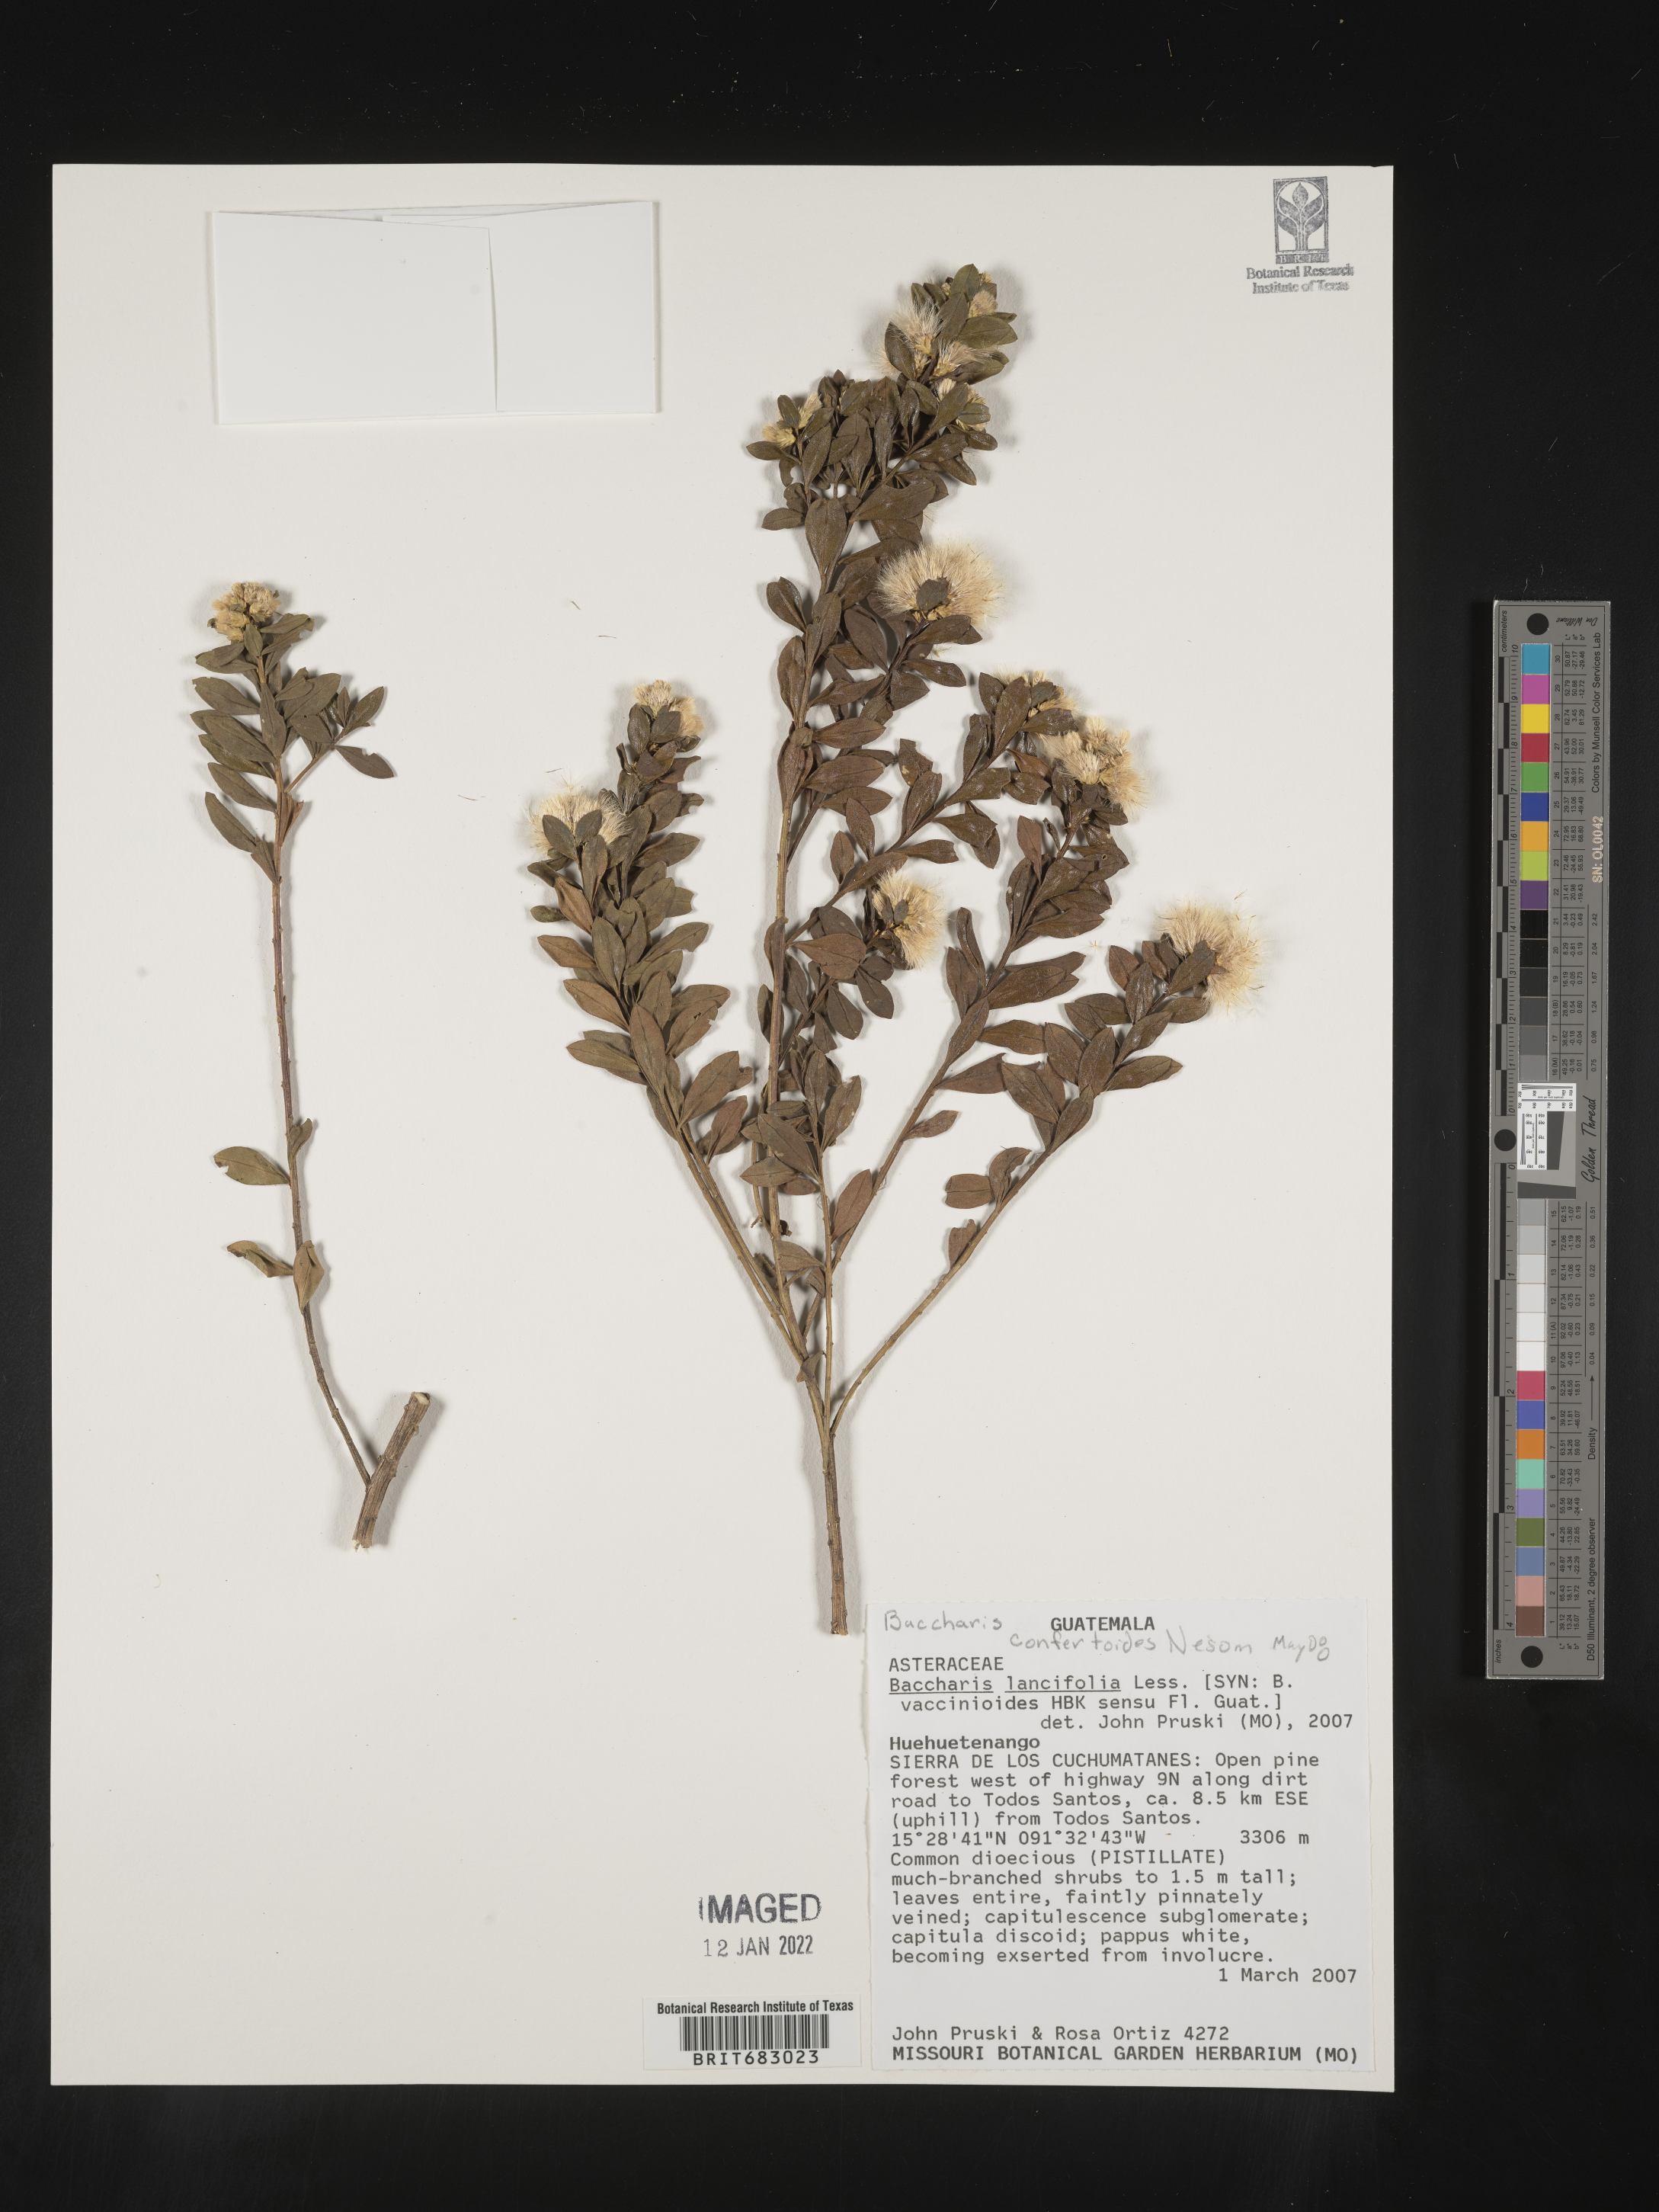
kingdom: Plantae
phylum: Tracheophyta
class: Magnoliopsida
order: Asterales
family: Asteraceae
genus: Baccharis
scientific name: Baccharis lancifolia
